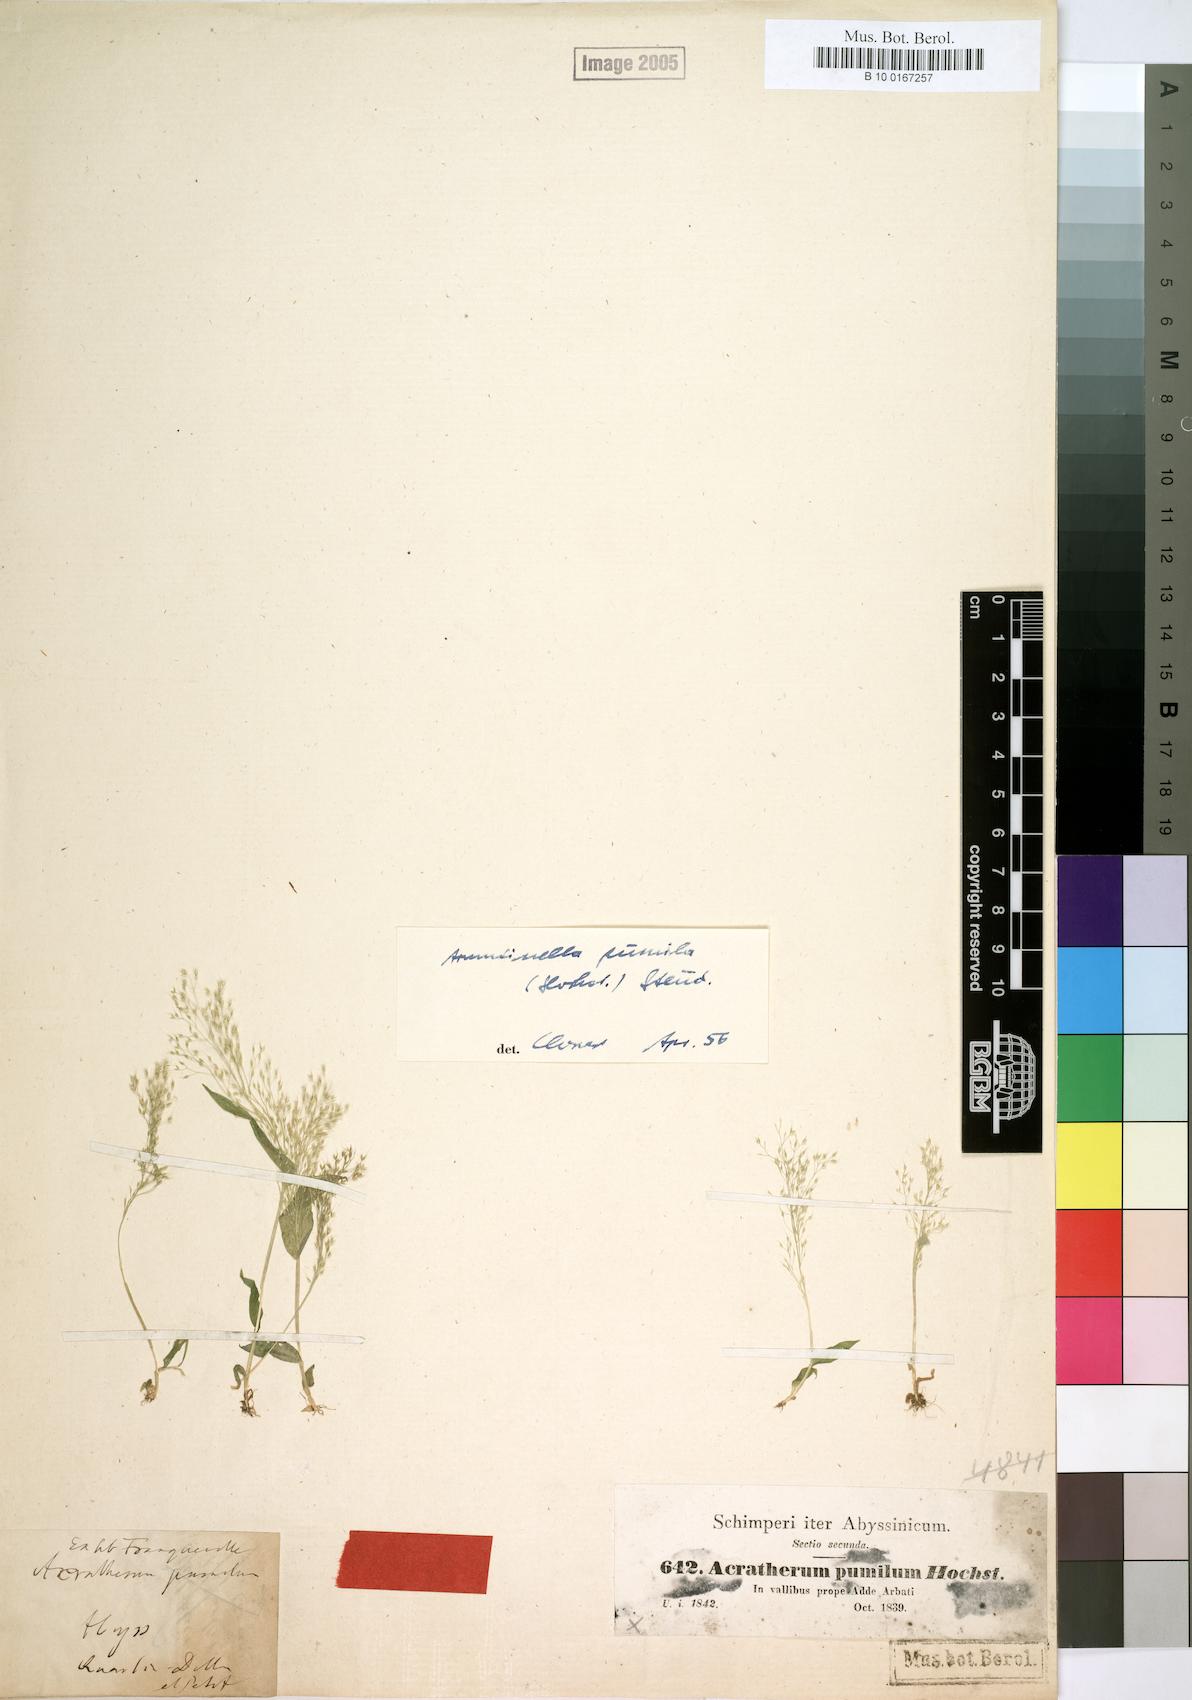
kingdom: Plantae
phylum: Tracheophyta
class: Liliopsida
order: Poales
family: Poaceae
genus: Arundinella
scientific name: Arundinella pumila
